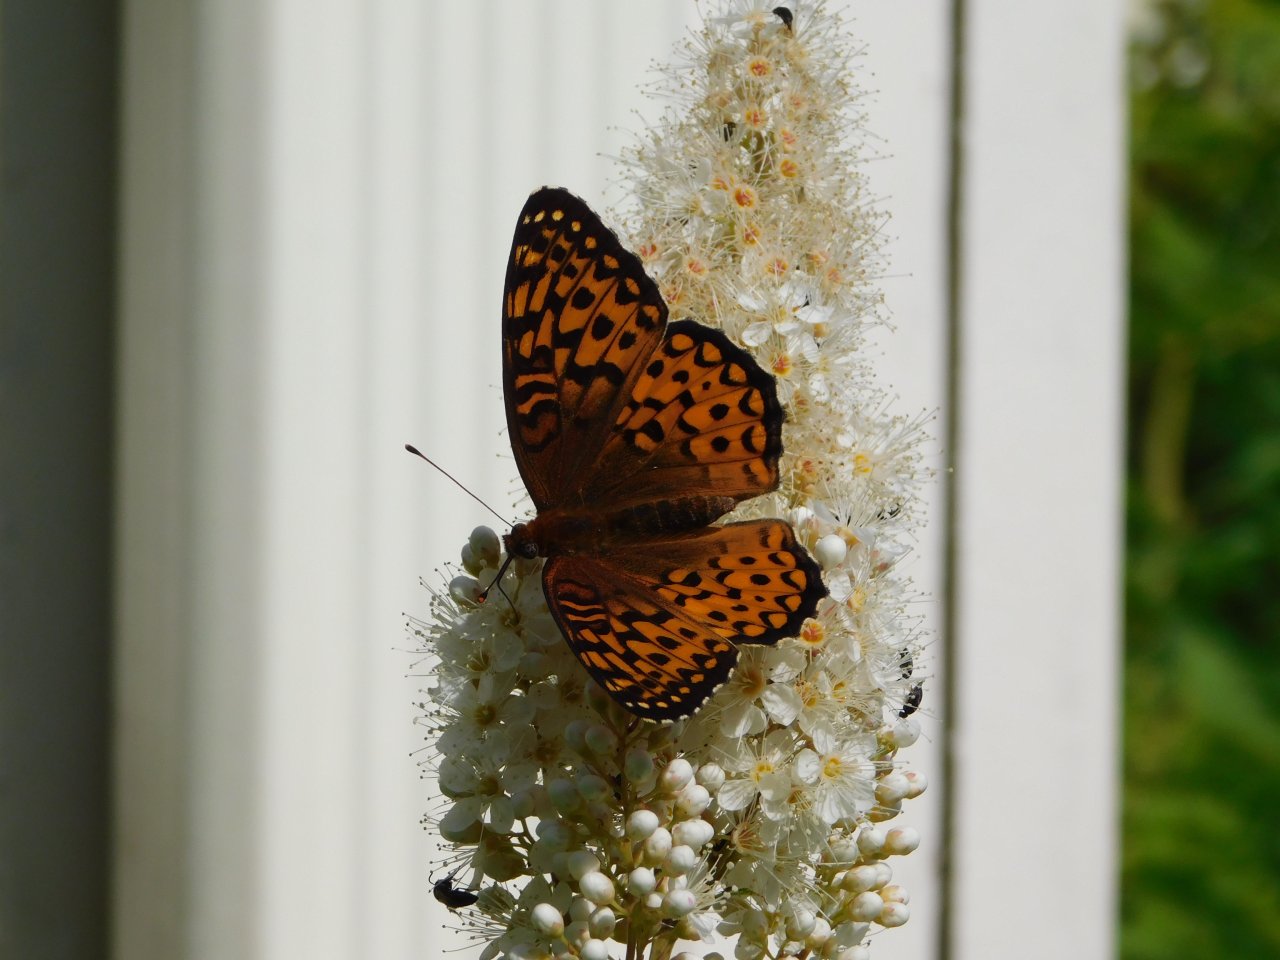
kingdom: Animalia
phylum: Arthropoda
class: Insecta
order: Lepidoptera
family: Nymphalidae
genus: Speyeria
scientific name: Speyeria atlantis
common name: Atlantis Fritillary
